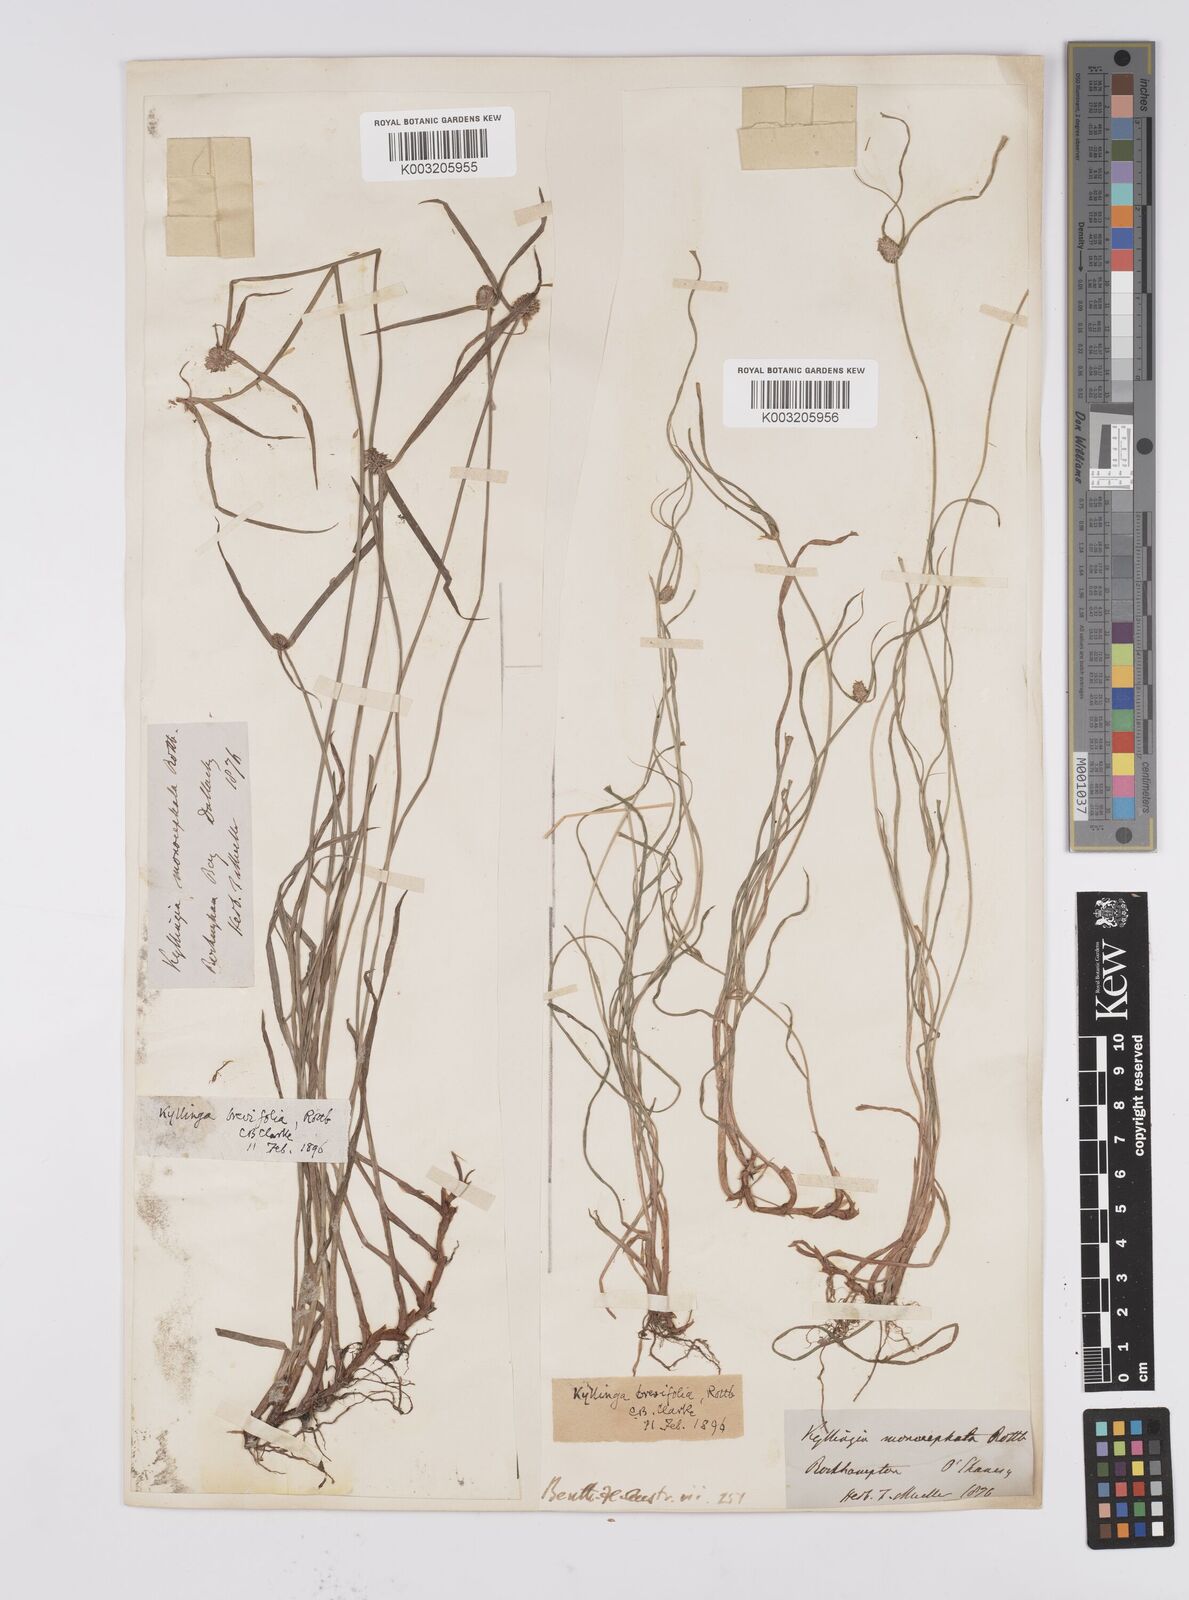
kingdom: Plantae
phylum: Tracheophyta
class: Liliopsida
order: Poales
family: Cyperaceae
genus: Cyperus
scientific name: Cyperus brevifolius
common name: Globe kyllinga
